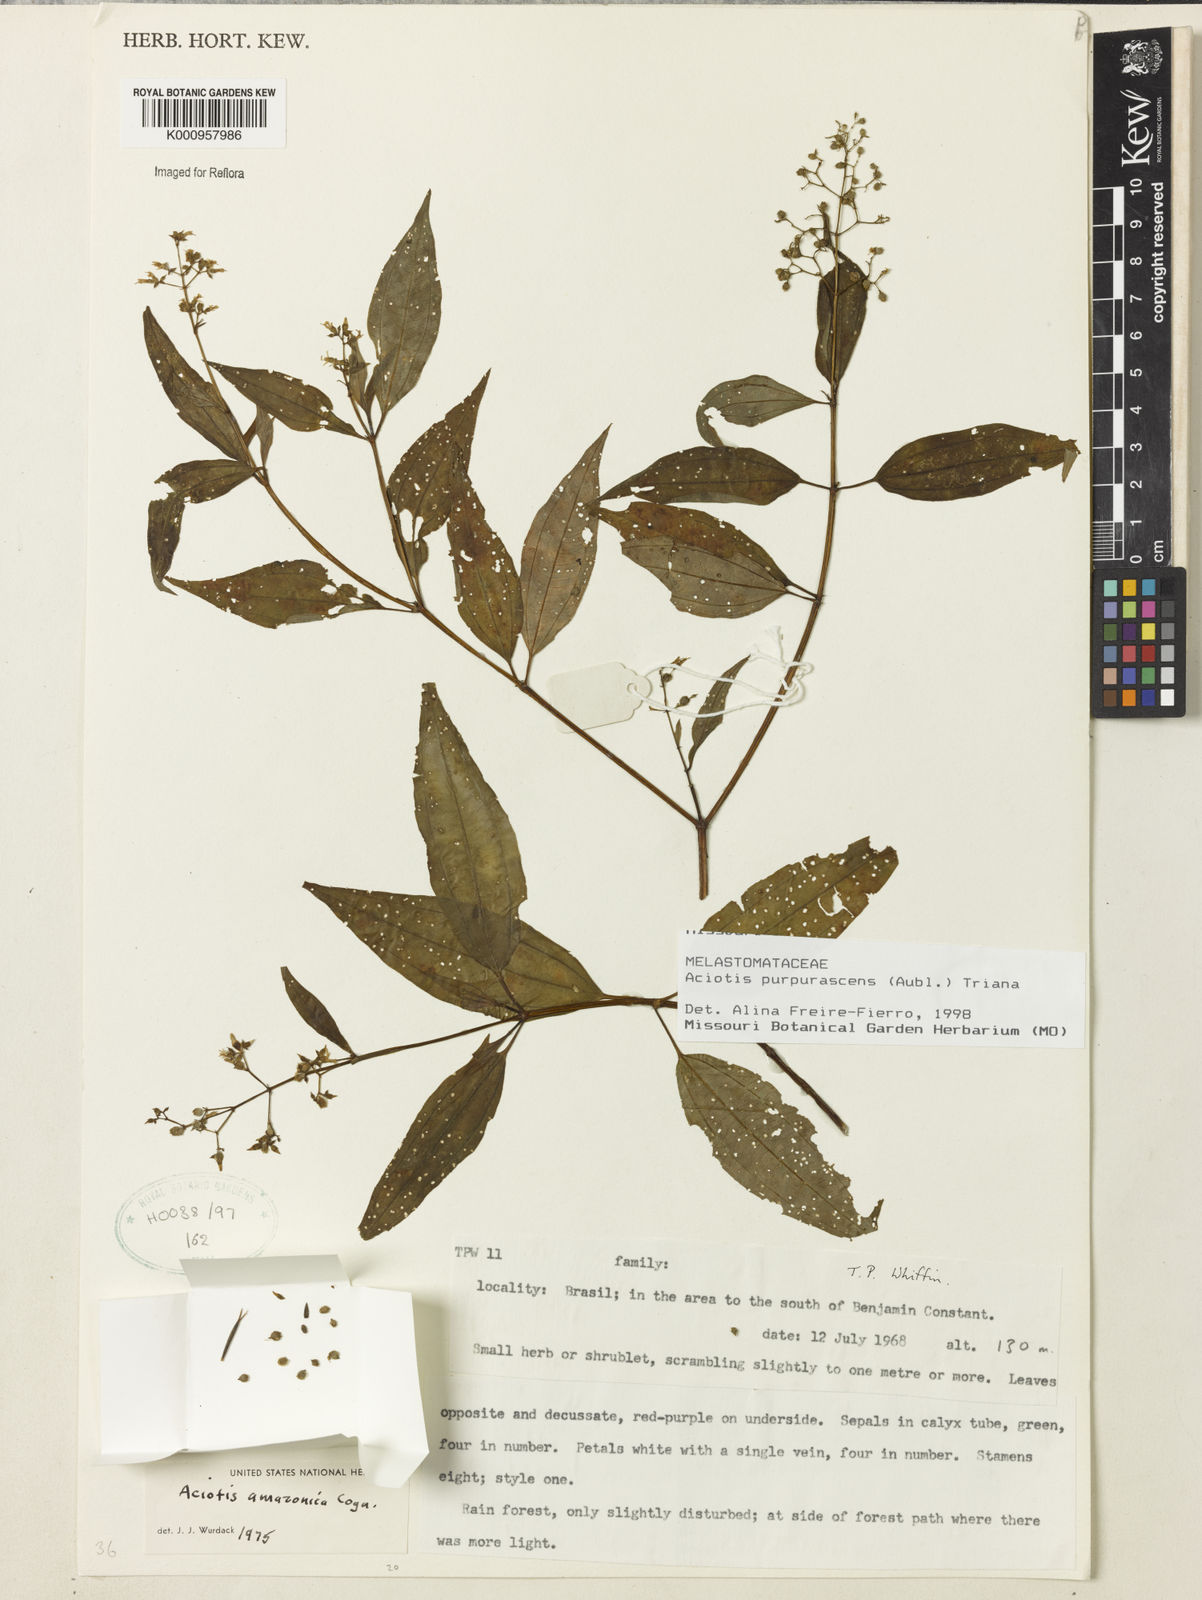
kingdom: Plantae
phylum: Tracheophyta
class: Magnoliopsida
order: Myrtales
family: Melastomataceae
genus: Aciotis
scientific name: Aciotis purpurascens
